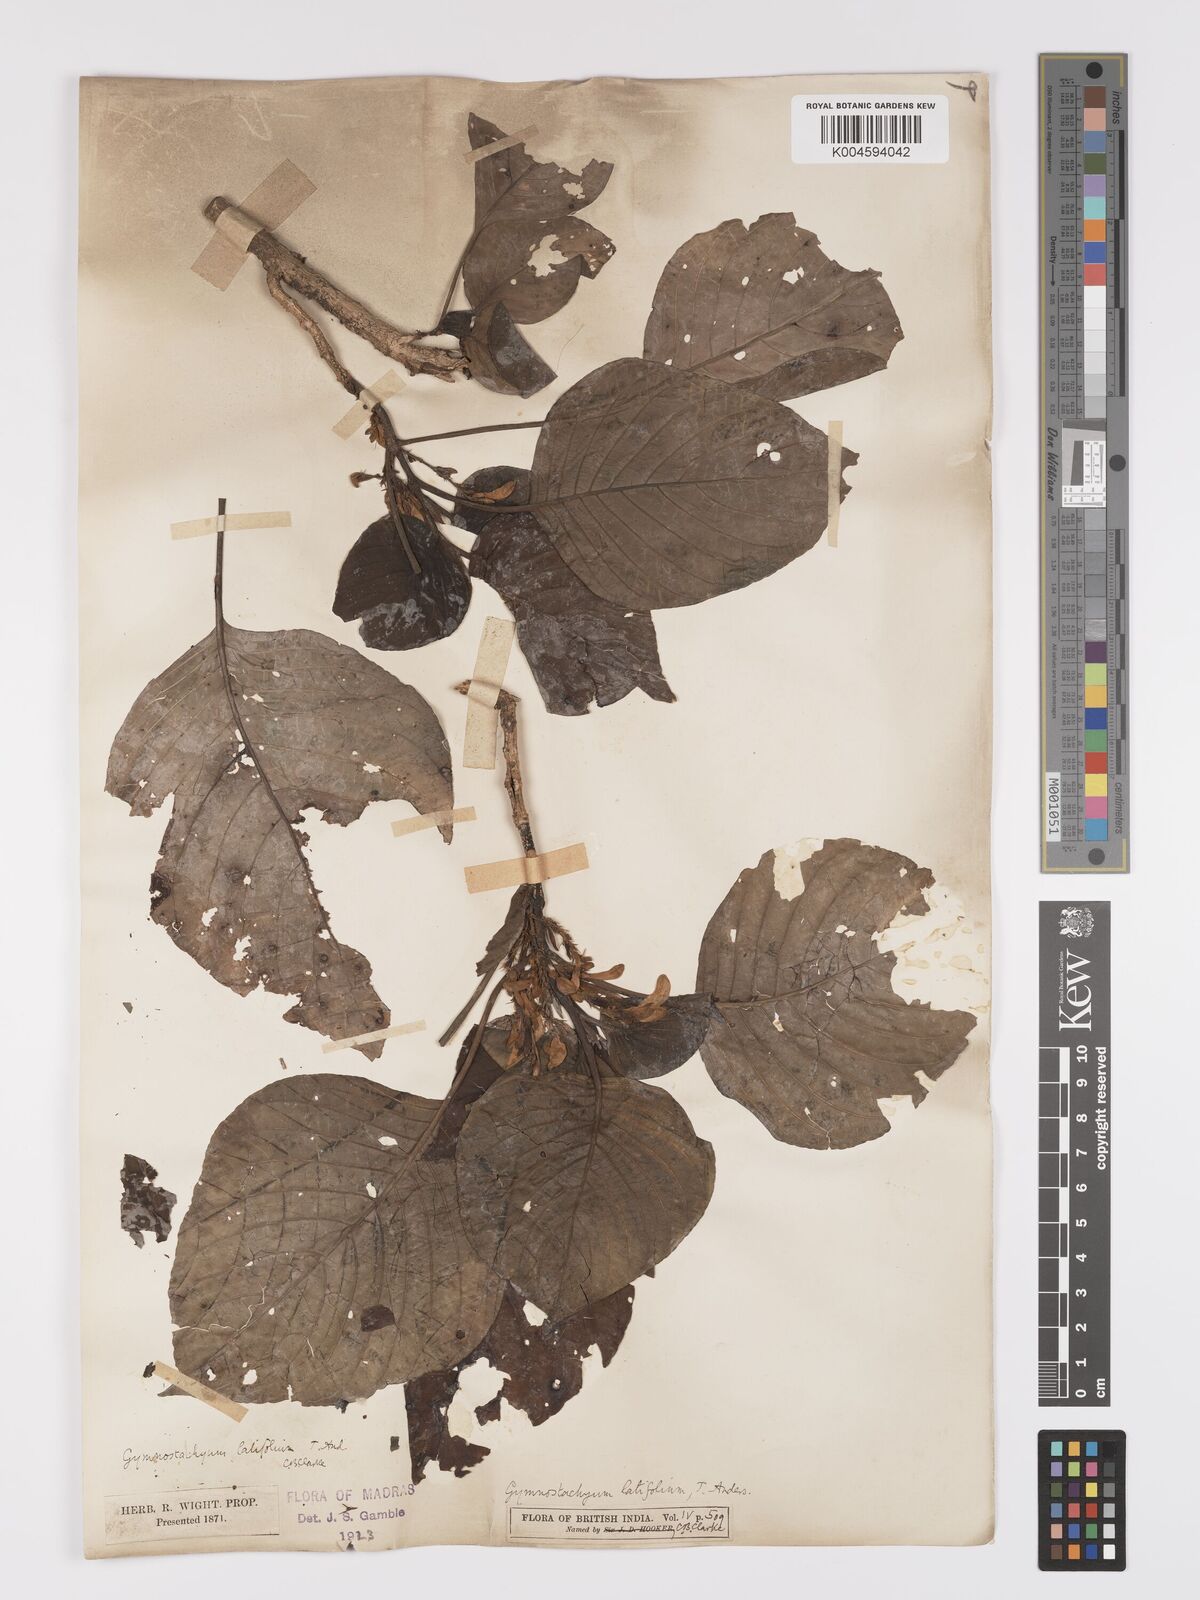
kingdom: Plantae
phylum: Tracheophyta
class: Magnoliopsida
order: Lamiales
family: Acanthaceae
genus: Gymnostachyum
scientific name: Gymnostachyum latifolium
